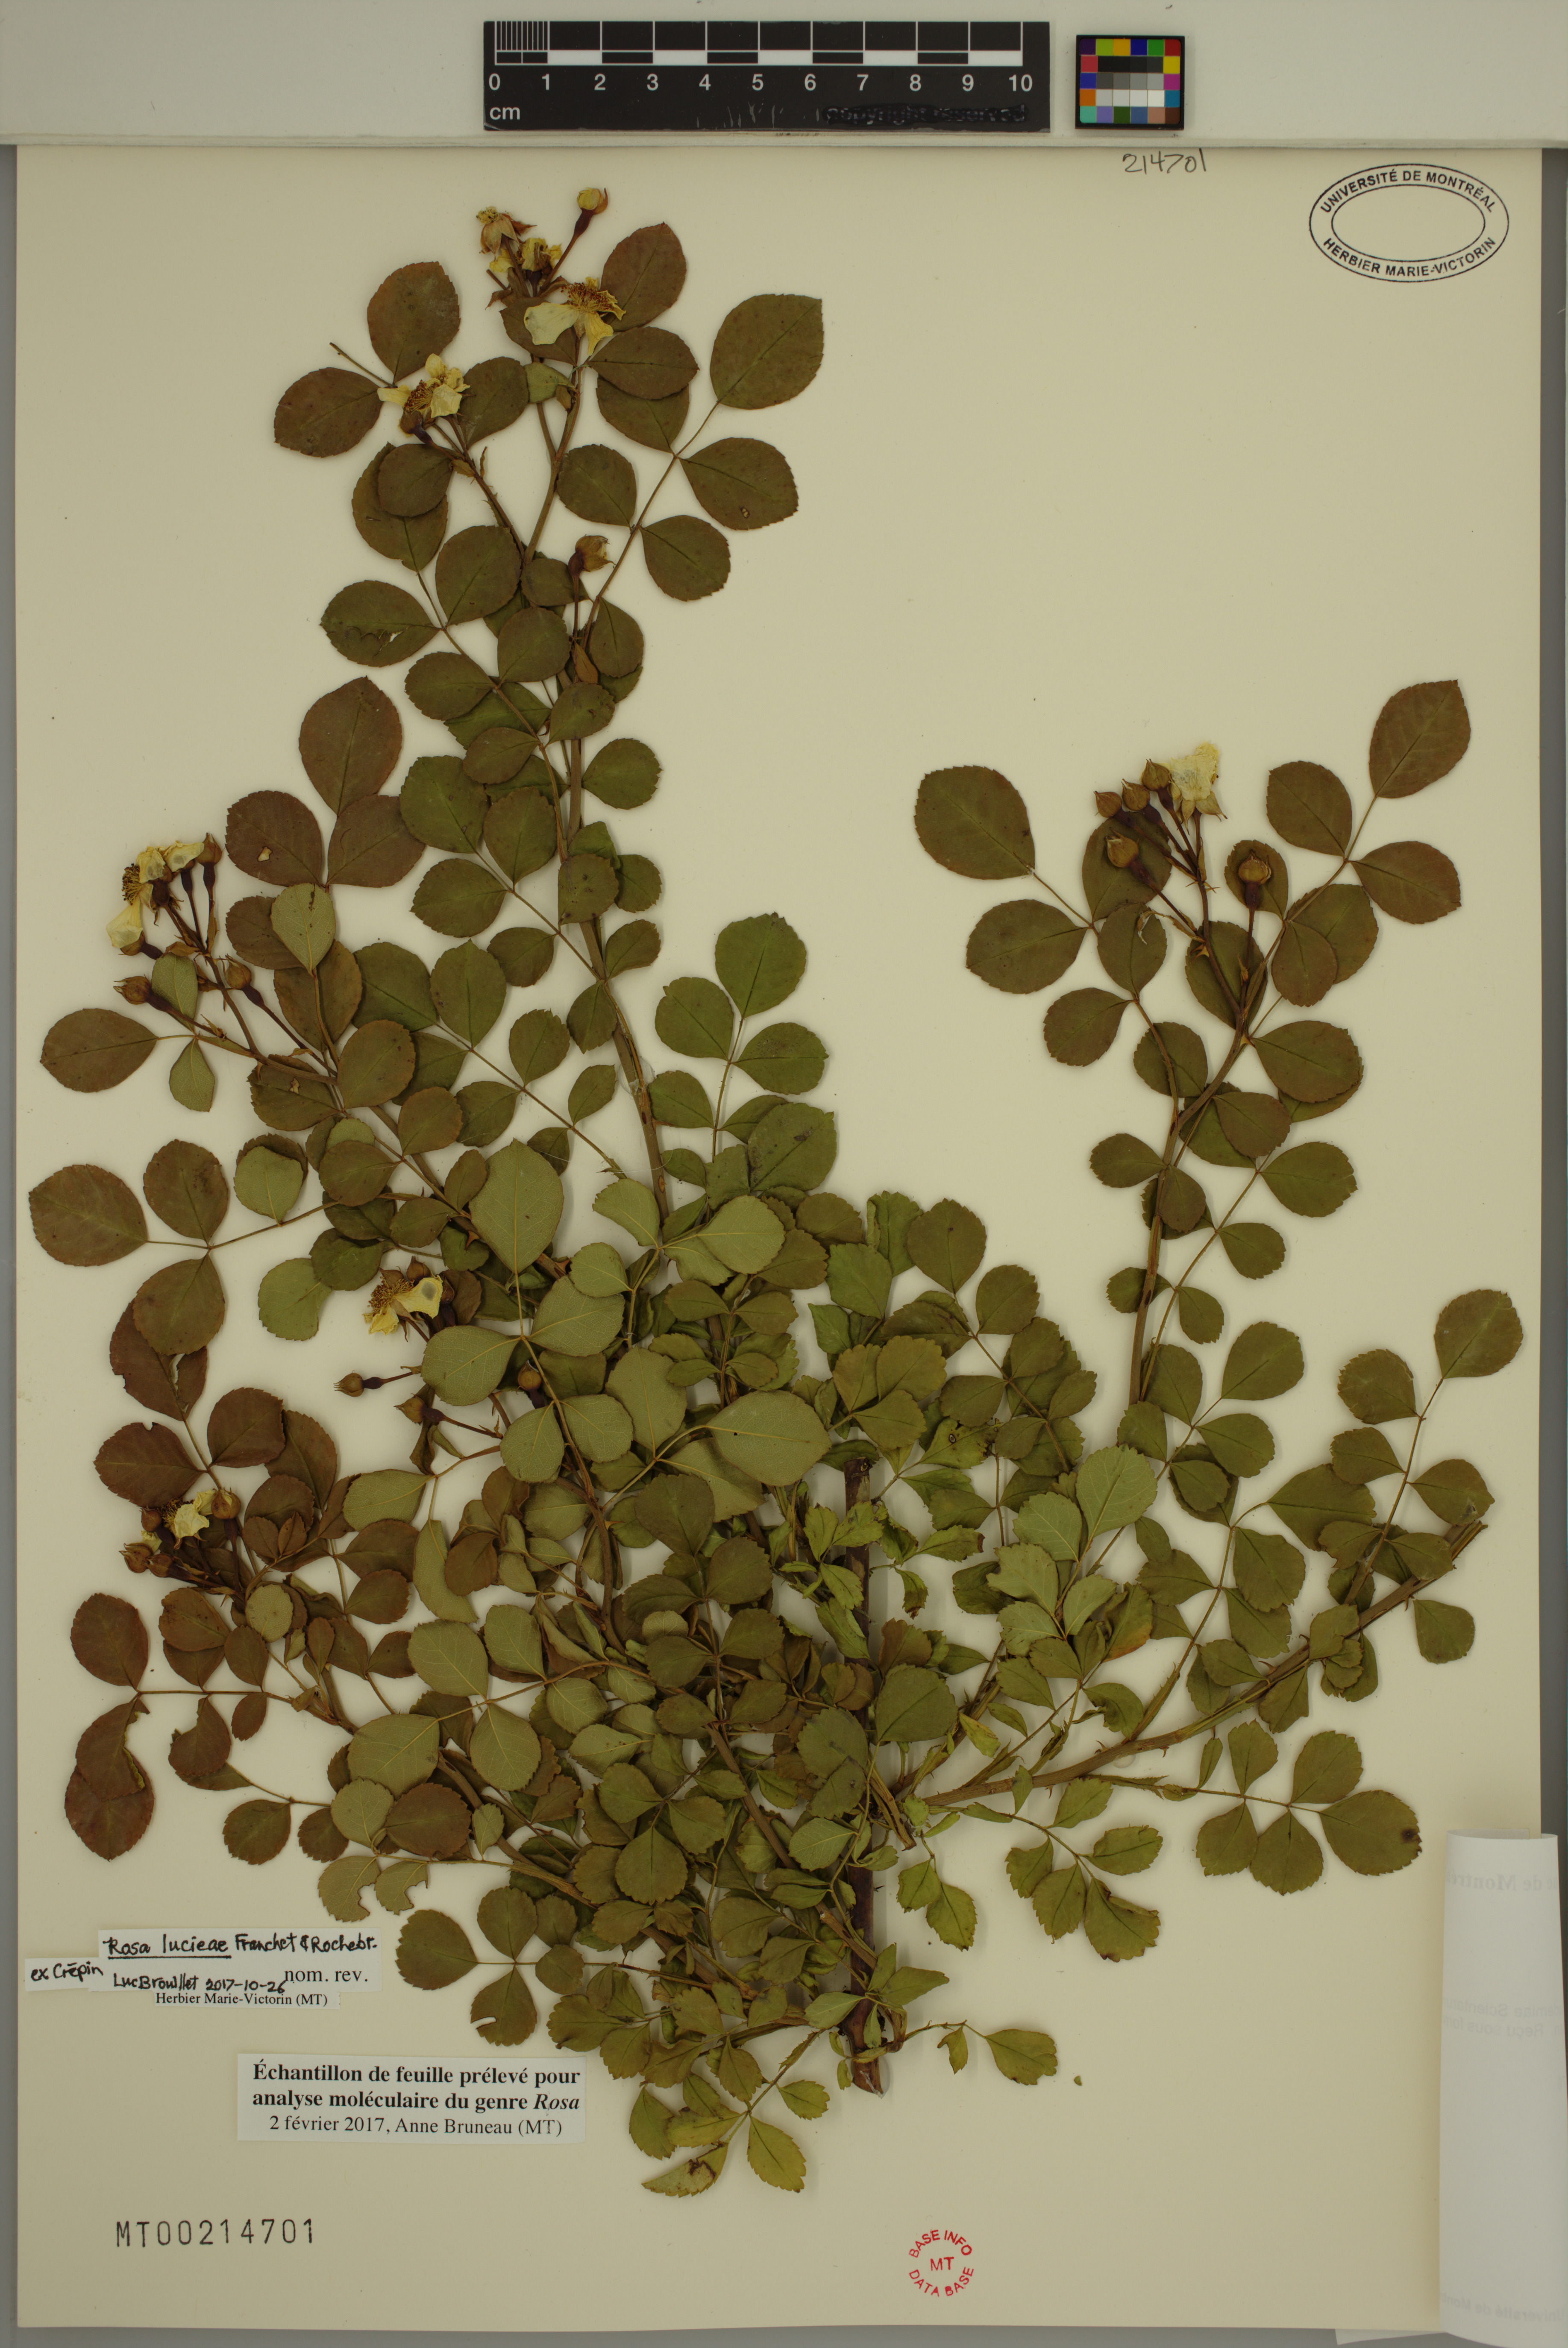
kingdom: Plantae
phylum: Tracheophyta
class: Magnoliopsida
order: Rosales
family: Rosaceae
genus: Rosa
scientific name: Rosa luciae
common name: Memorial rose
